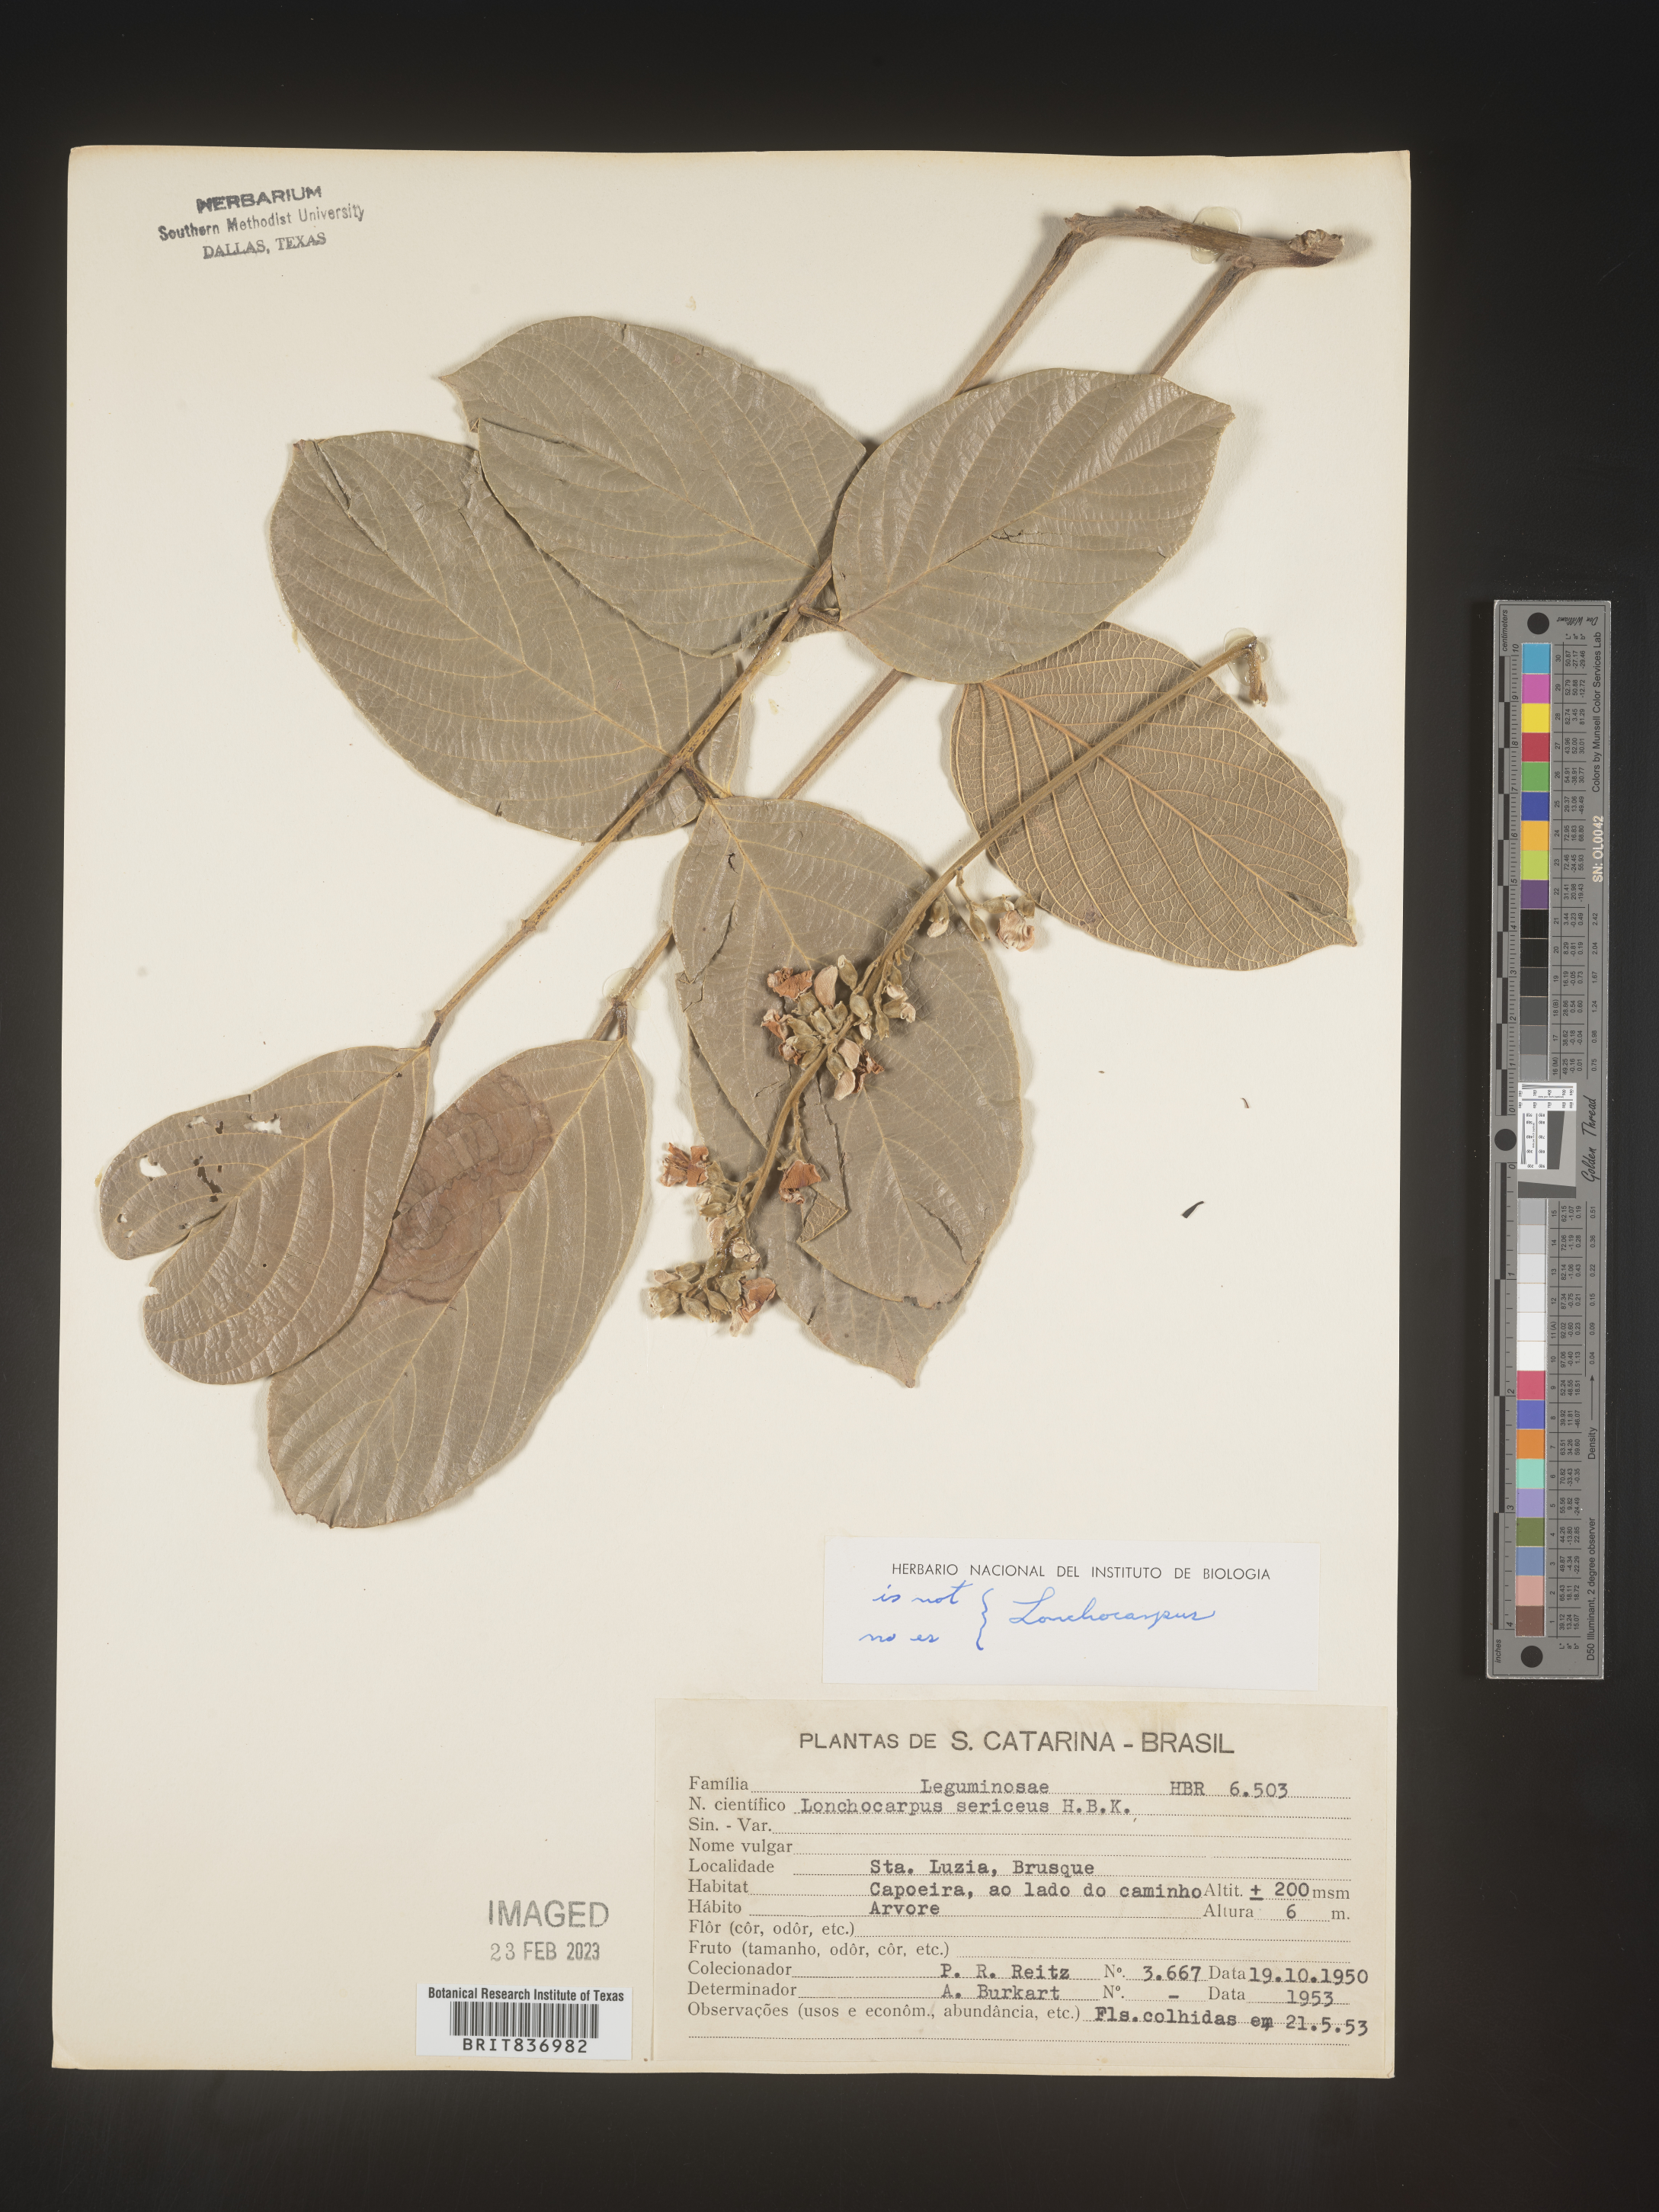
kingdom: Plantae
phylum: Tracheophyta
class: Magnoliopsida
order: Fabales
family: Fabaceae
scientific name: Fabaceae
